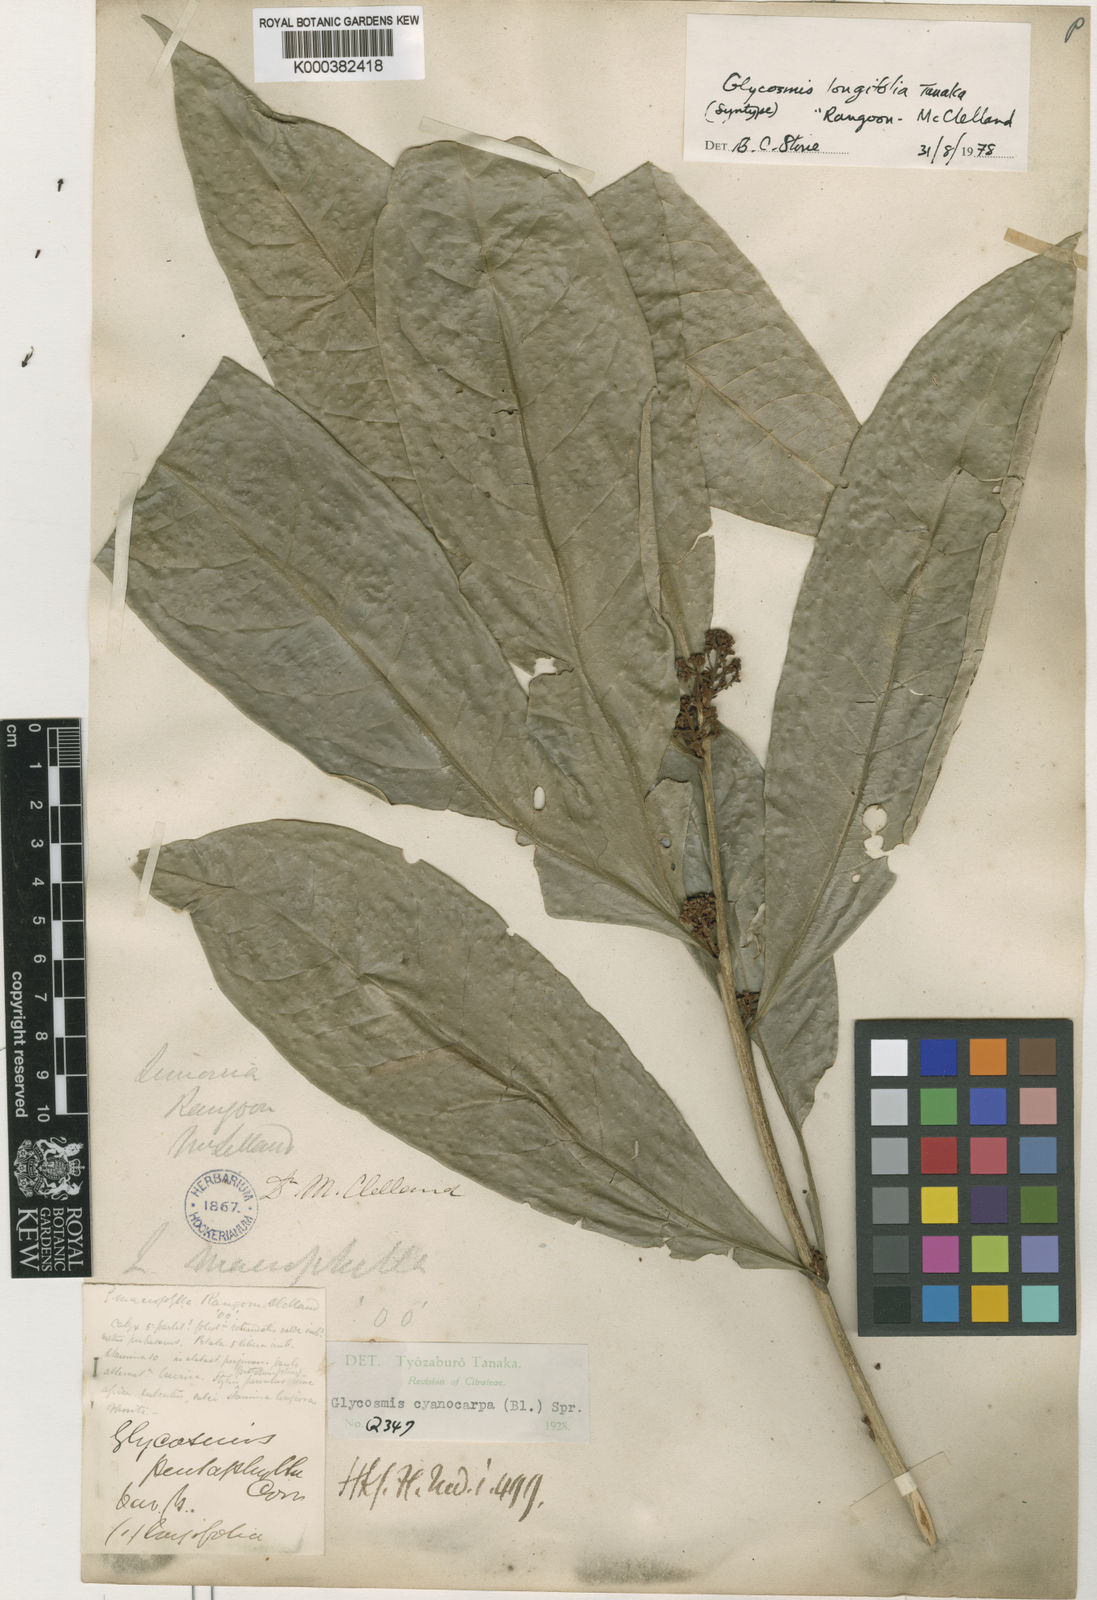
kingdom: Plantae
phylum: Tracheophyta
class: Magnoliopsida
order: Sapindales
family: Rutaceae
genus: Glycosmis
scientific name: Glycosmis cyanocarpa
